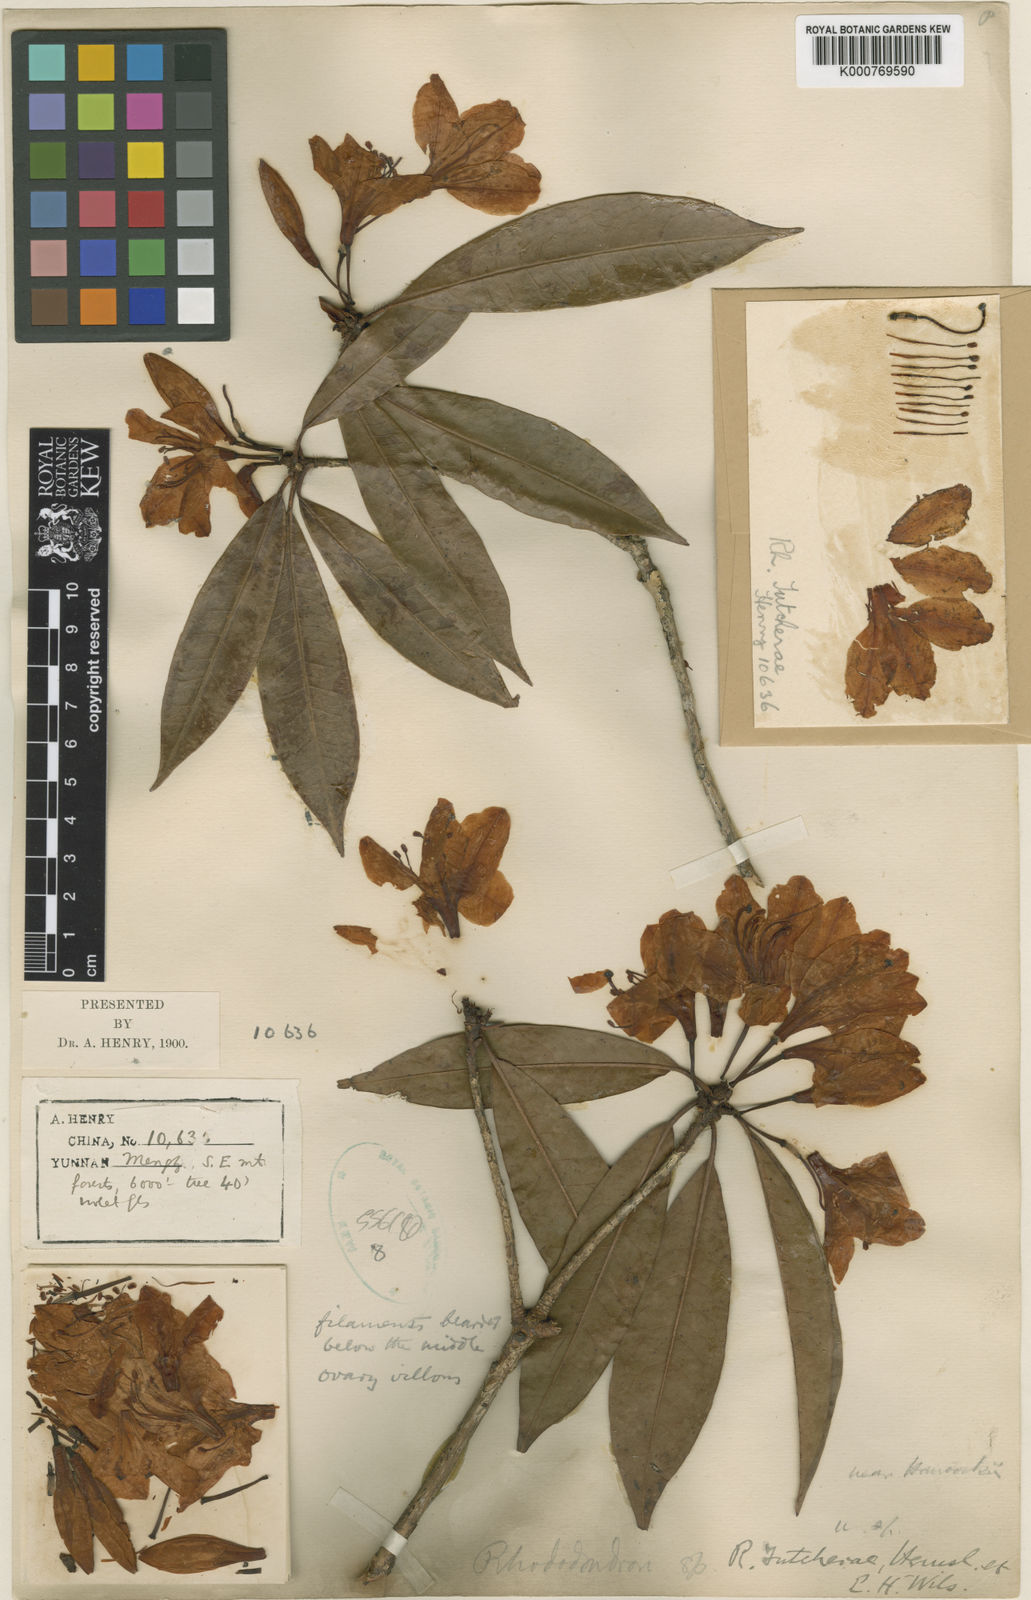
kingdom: Plantae
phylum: Tracheophyta
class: Magnoliopsida
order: Ericales
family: Ericaceae
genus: Rhododendron
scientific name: Rhododendron tutcherae
